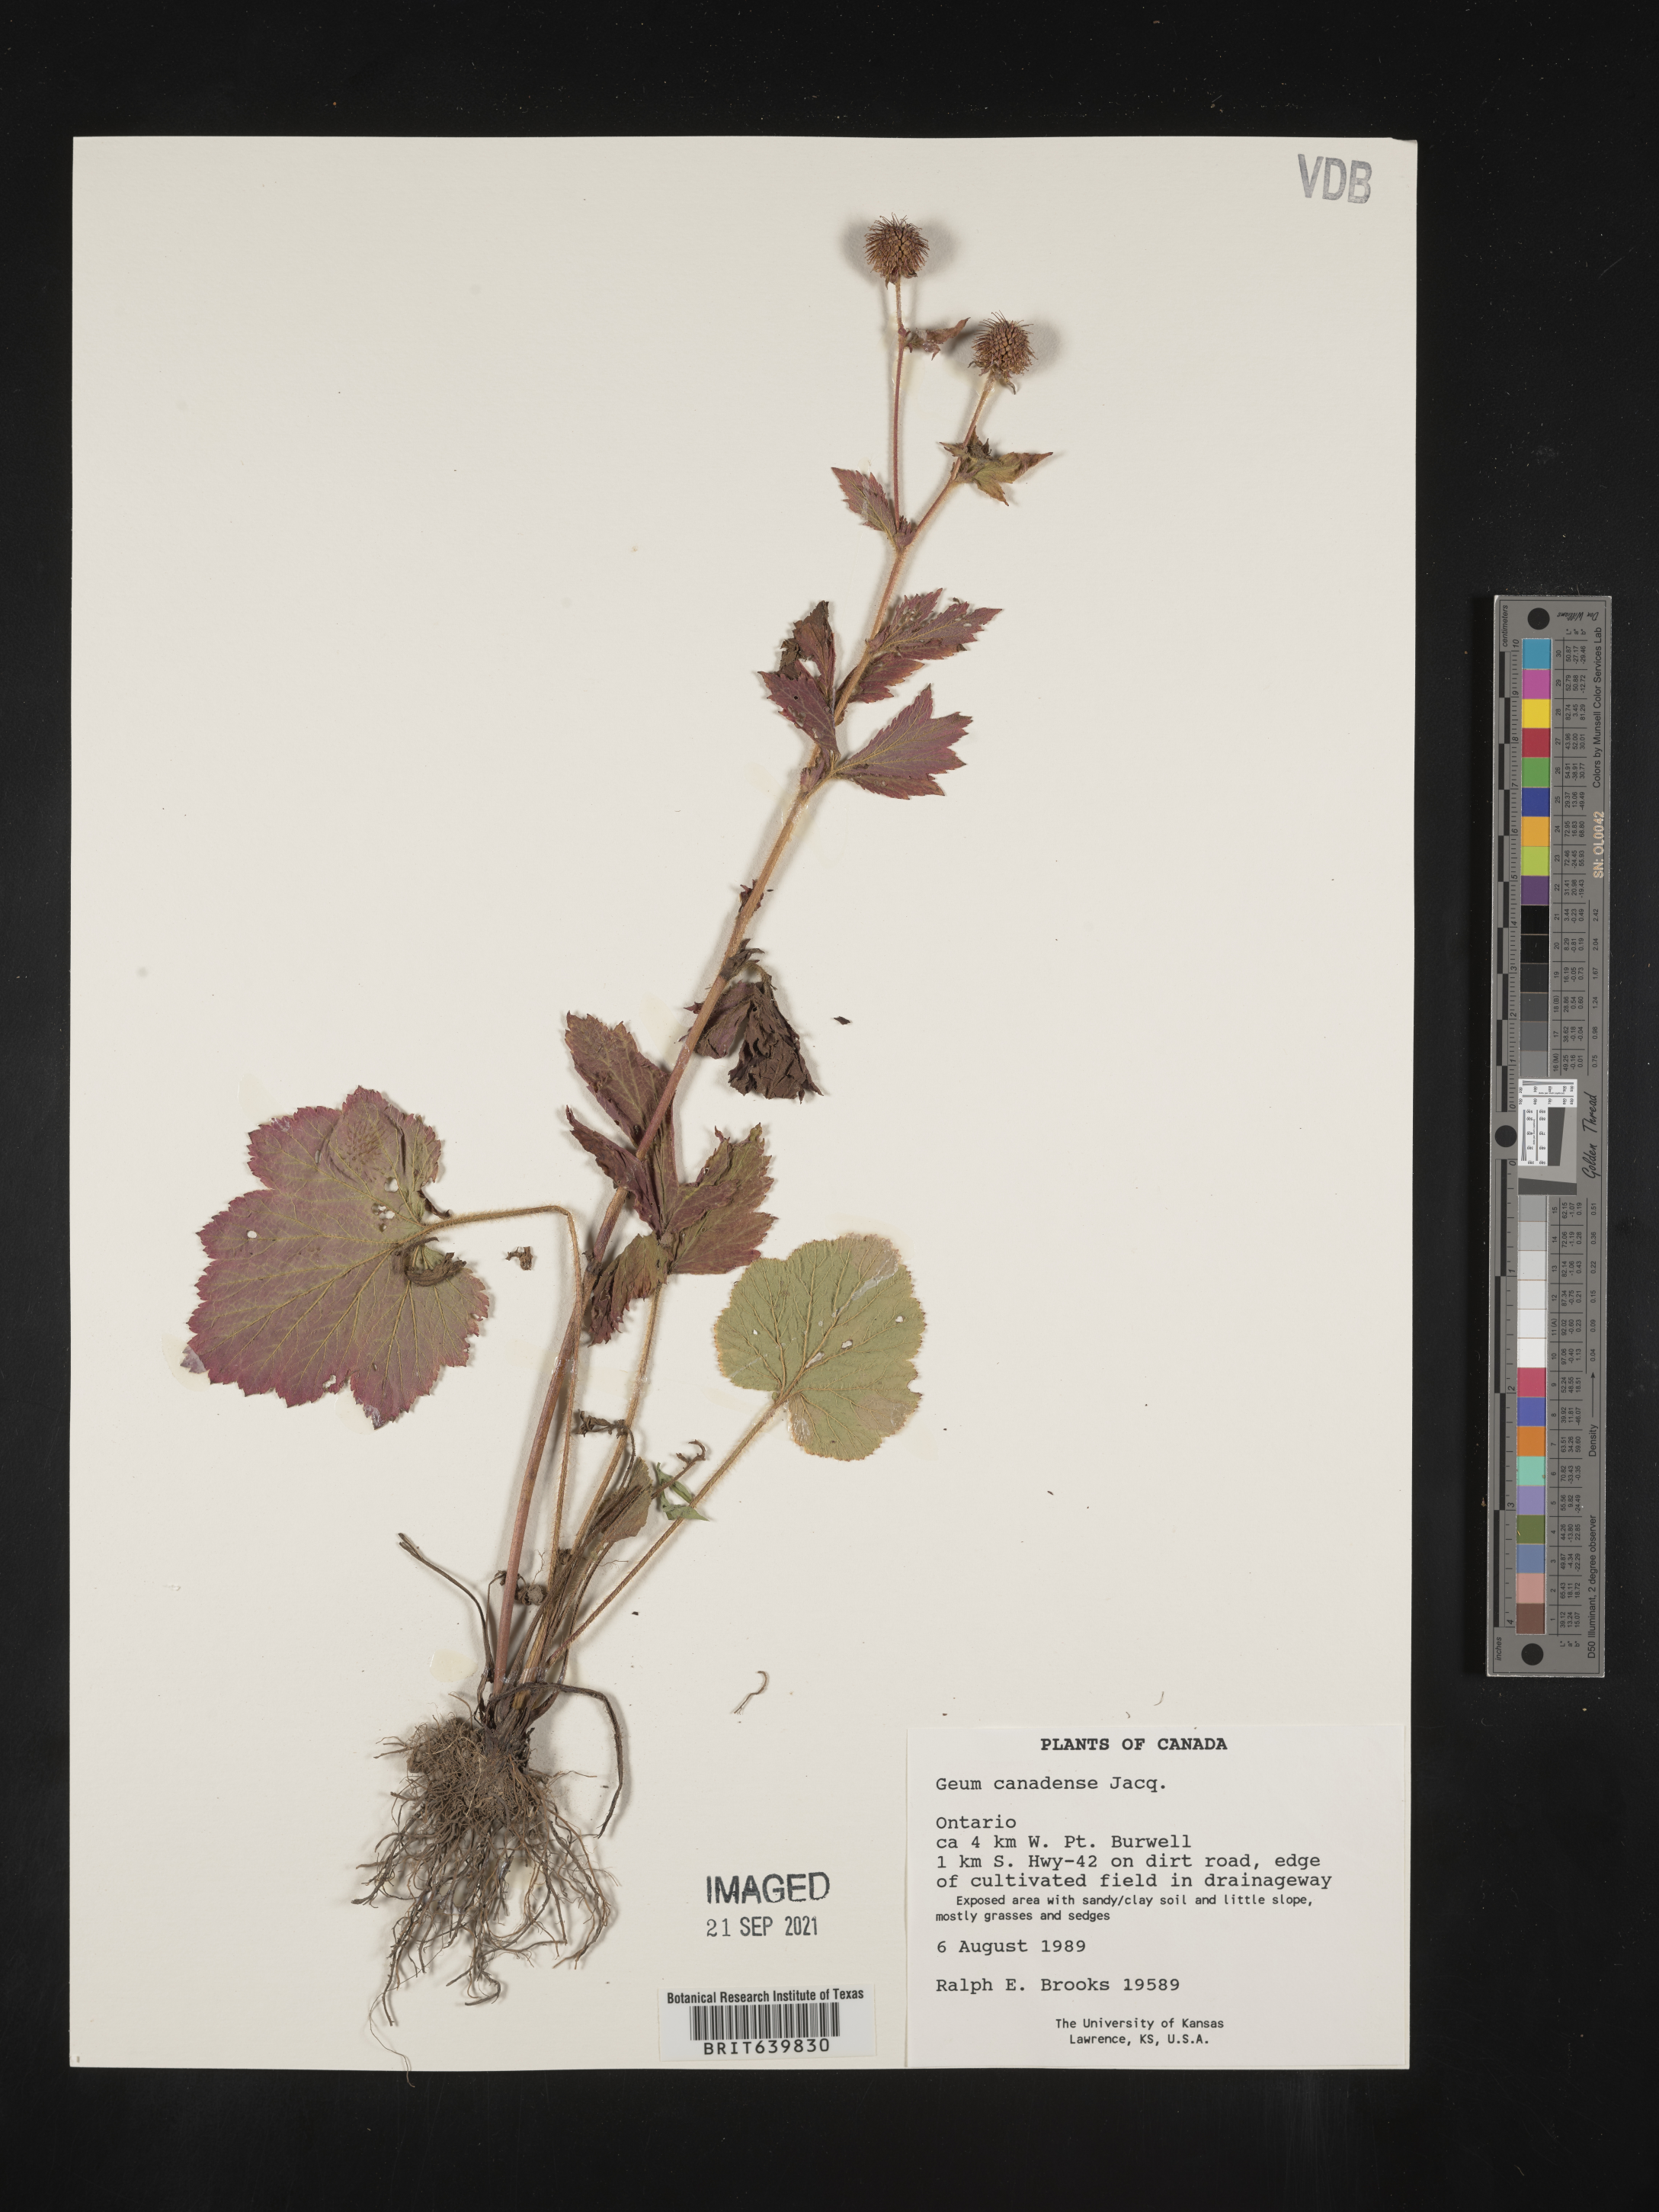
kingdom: Plantae
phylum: Tracheophyta
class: Magnoliopsida
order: Rosales
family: Rosaceae
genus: Geum
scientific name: Geum
